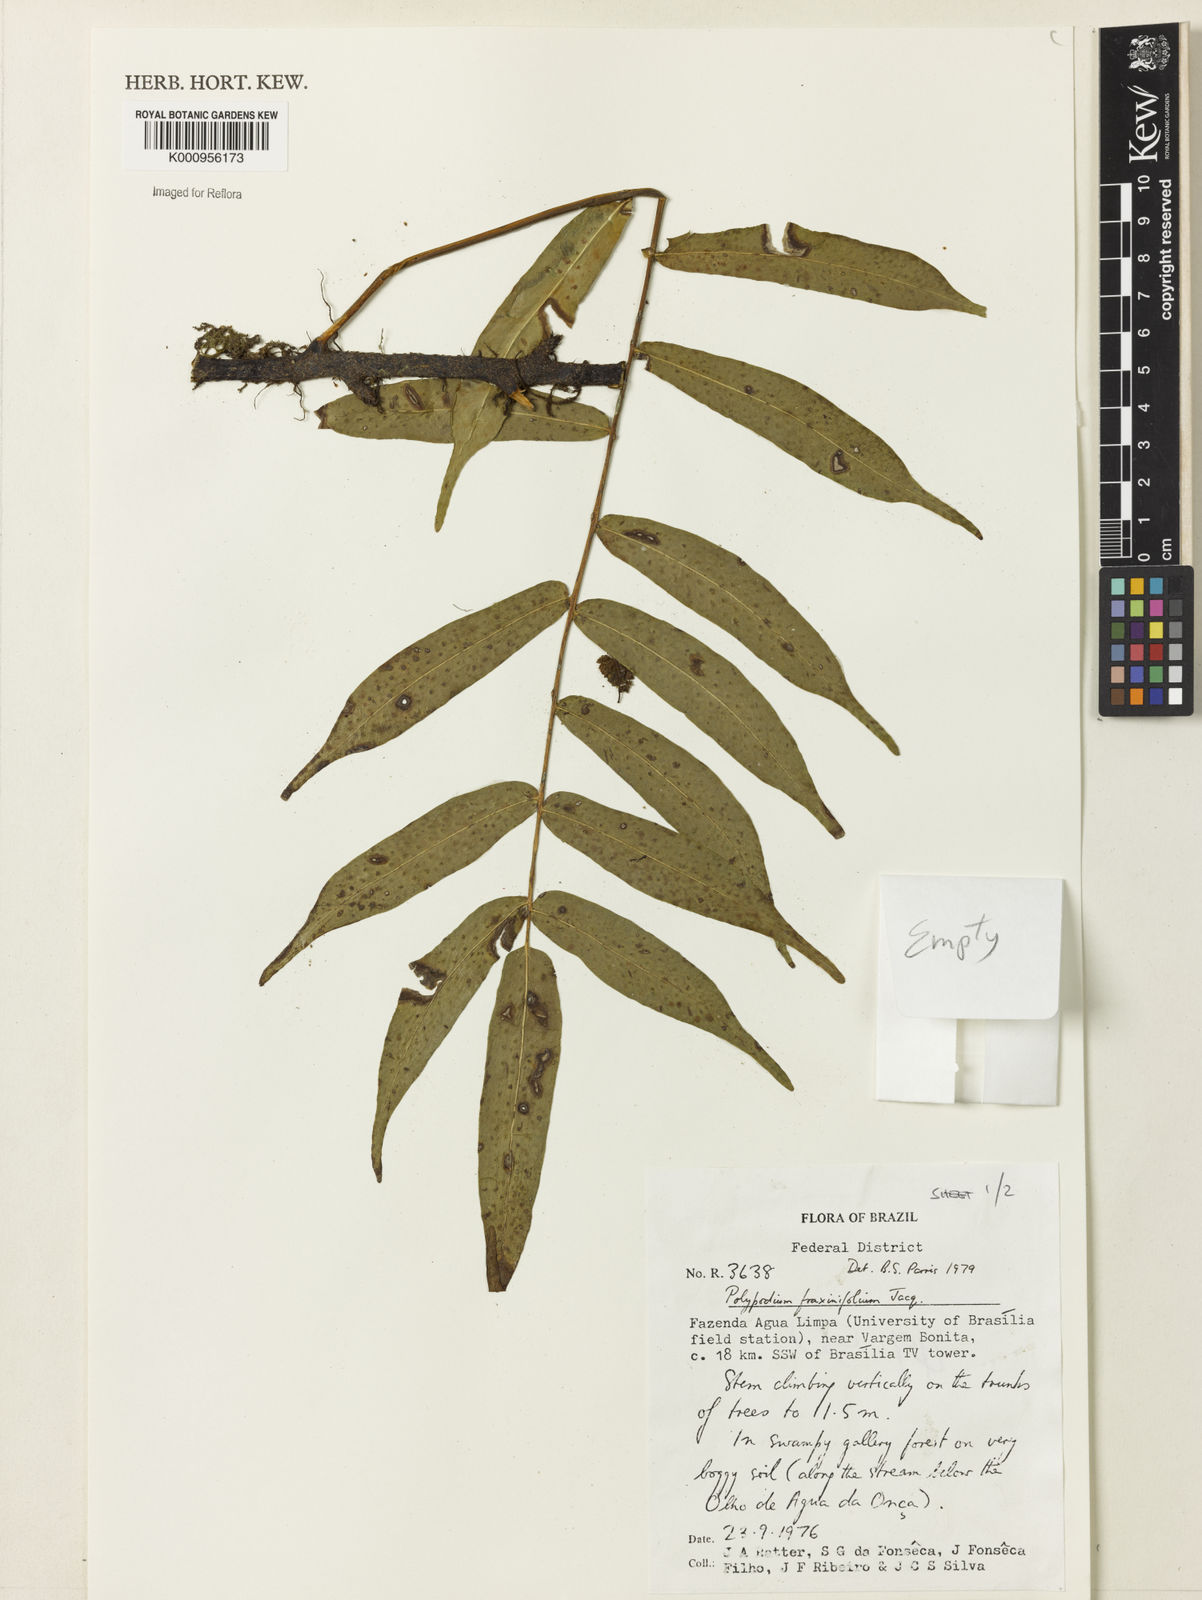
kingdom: Plantae
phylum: Tracheophyta
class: Polypodiopsida
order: Polypodiales
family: Polypodiaceae
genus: Serpocaulon
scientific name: Serpocaulon fraxinifolium
